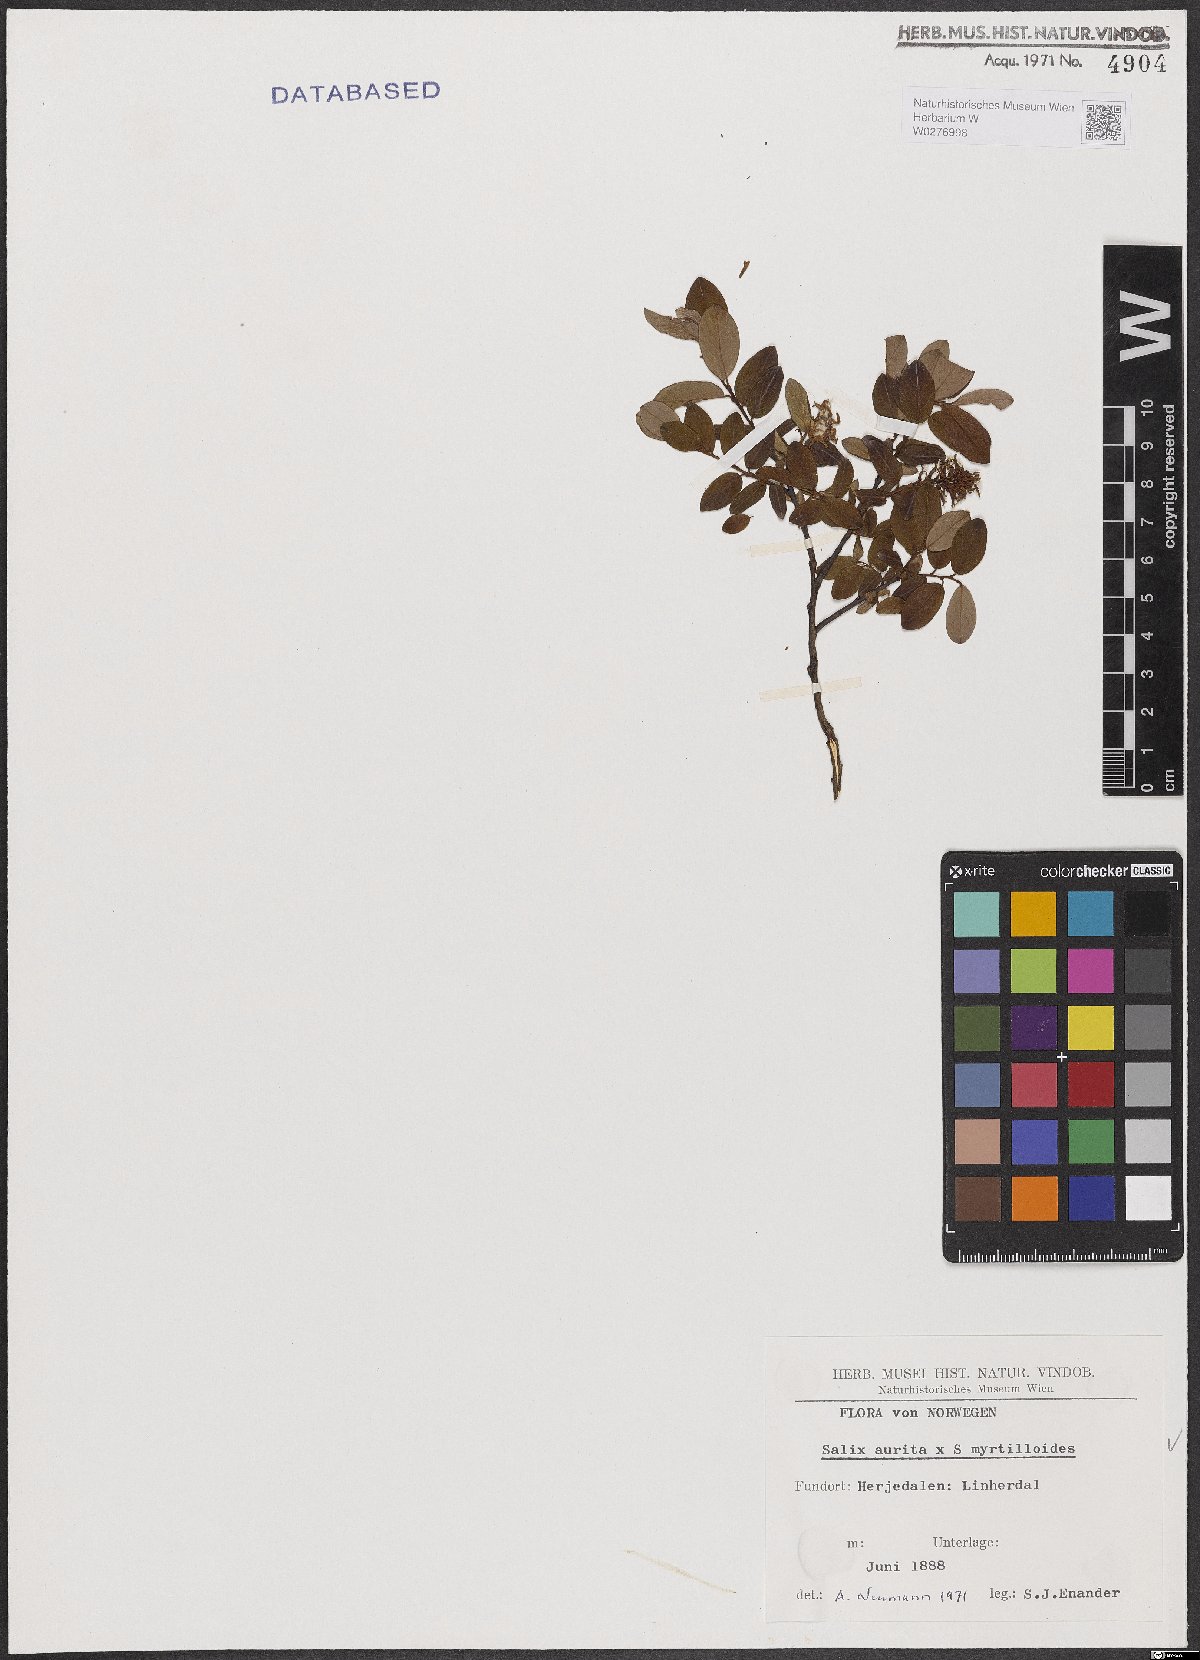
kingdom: Plantae
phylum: Tracheophyta
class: Magnoliopsida
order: Malpighiales
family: Salicaceae
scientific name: Salicaceae
